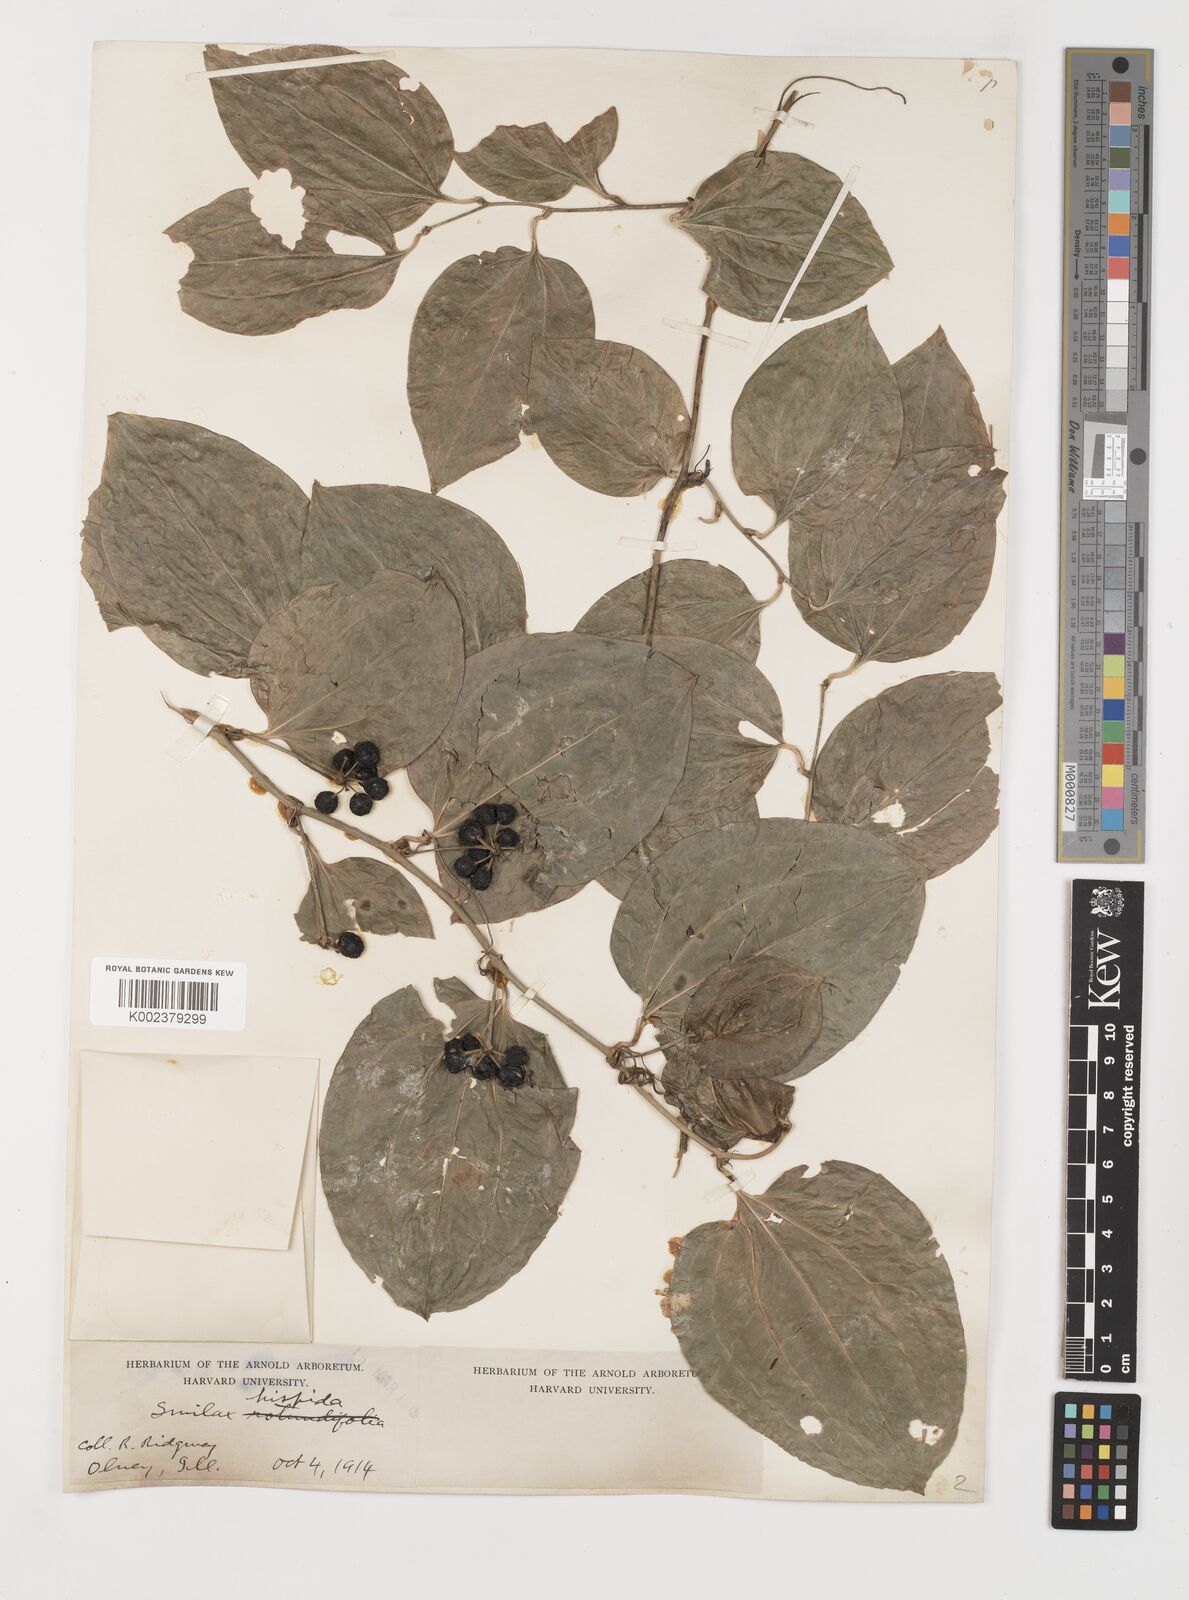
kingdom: Plantae
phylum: Tracheophyta
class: Liliopsida
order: Liliales
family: Smilacaceae
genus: Smilax
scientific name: Smilax tamnoides
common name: Hellfetter
